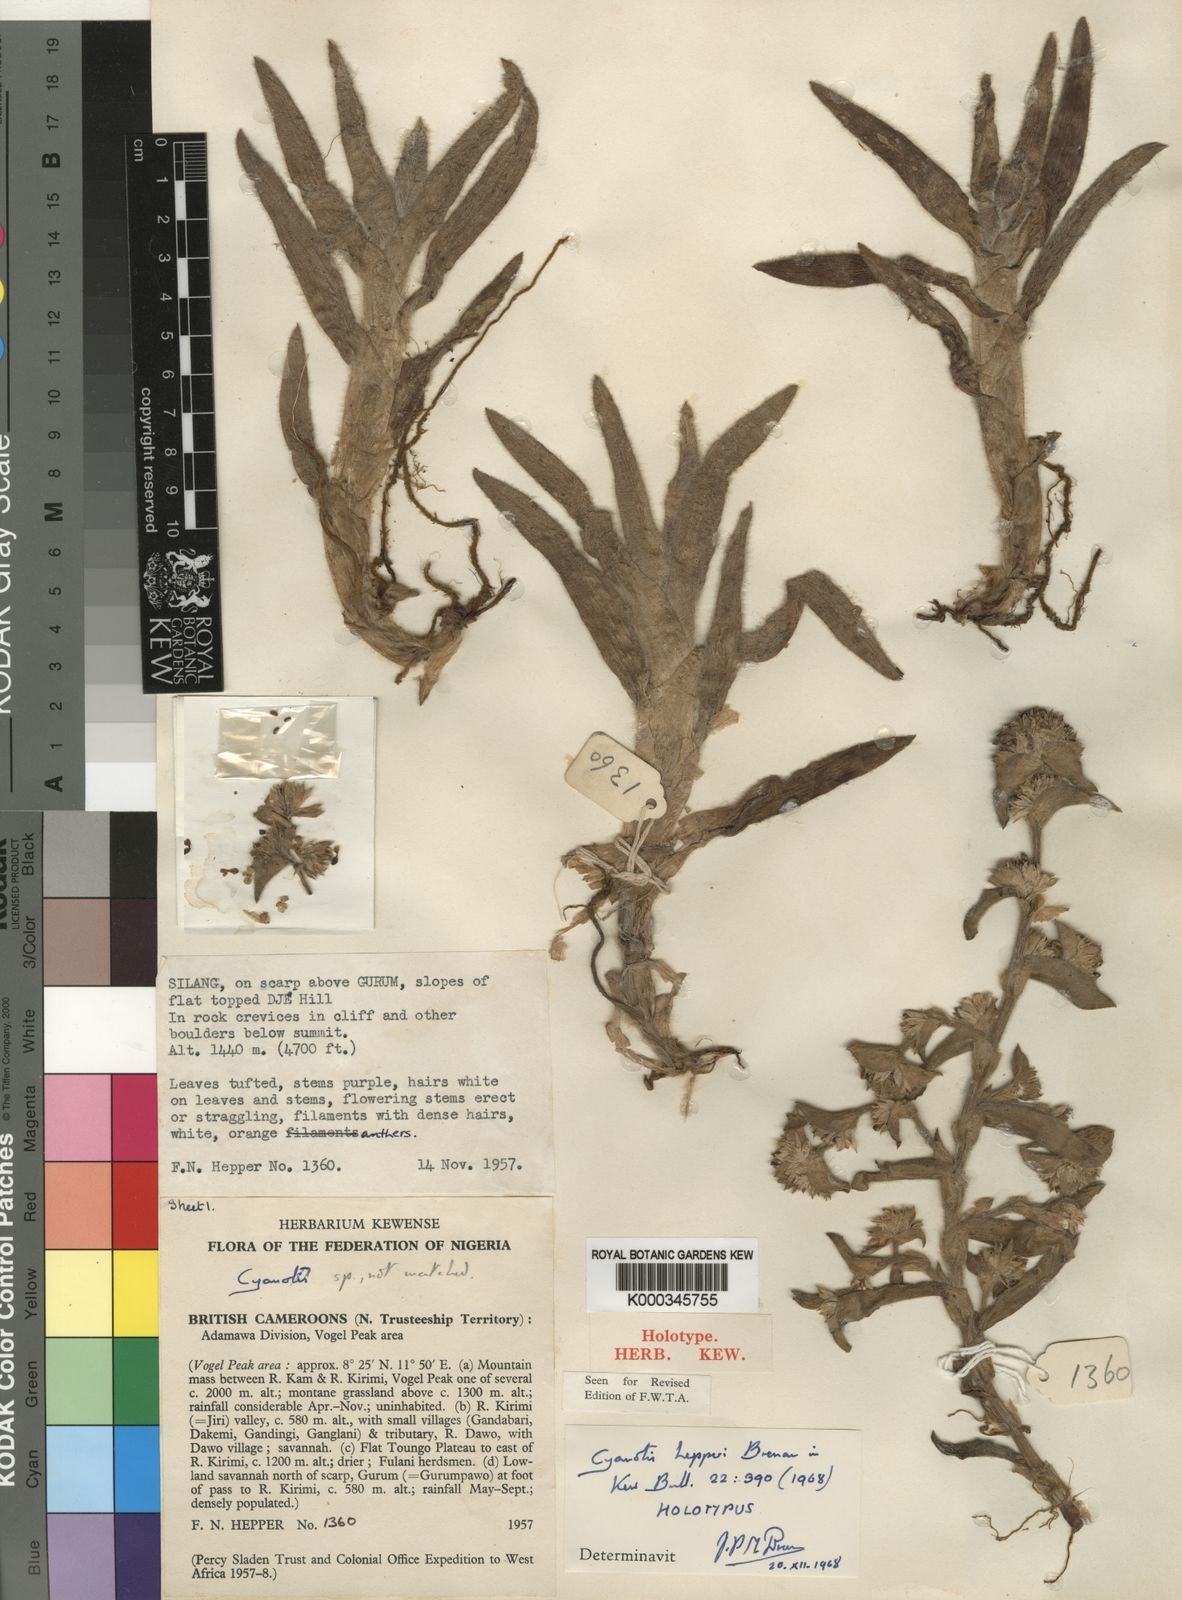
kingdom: Plantae
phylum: Tracheophyta
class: Liliopsida
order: Commelinales
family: Commelinaceae
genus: Cyanotis
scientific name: Cyanotis hepperi
